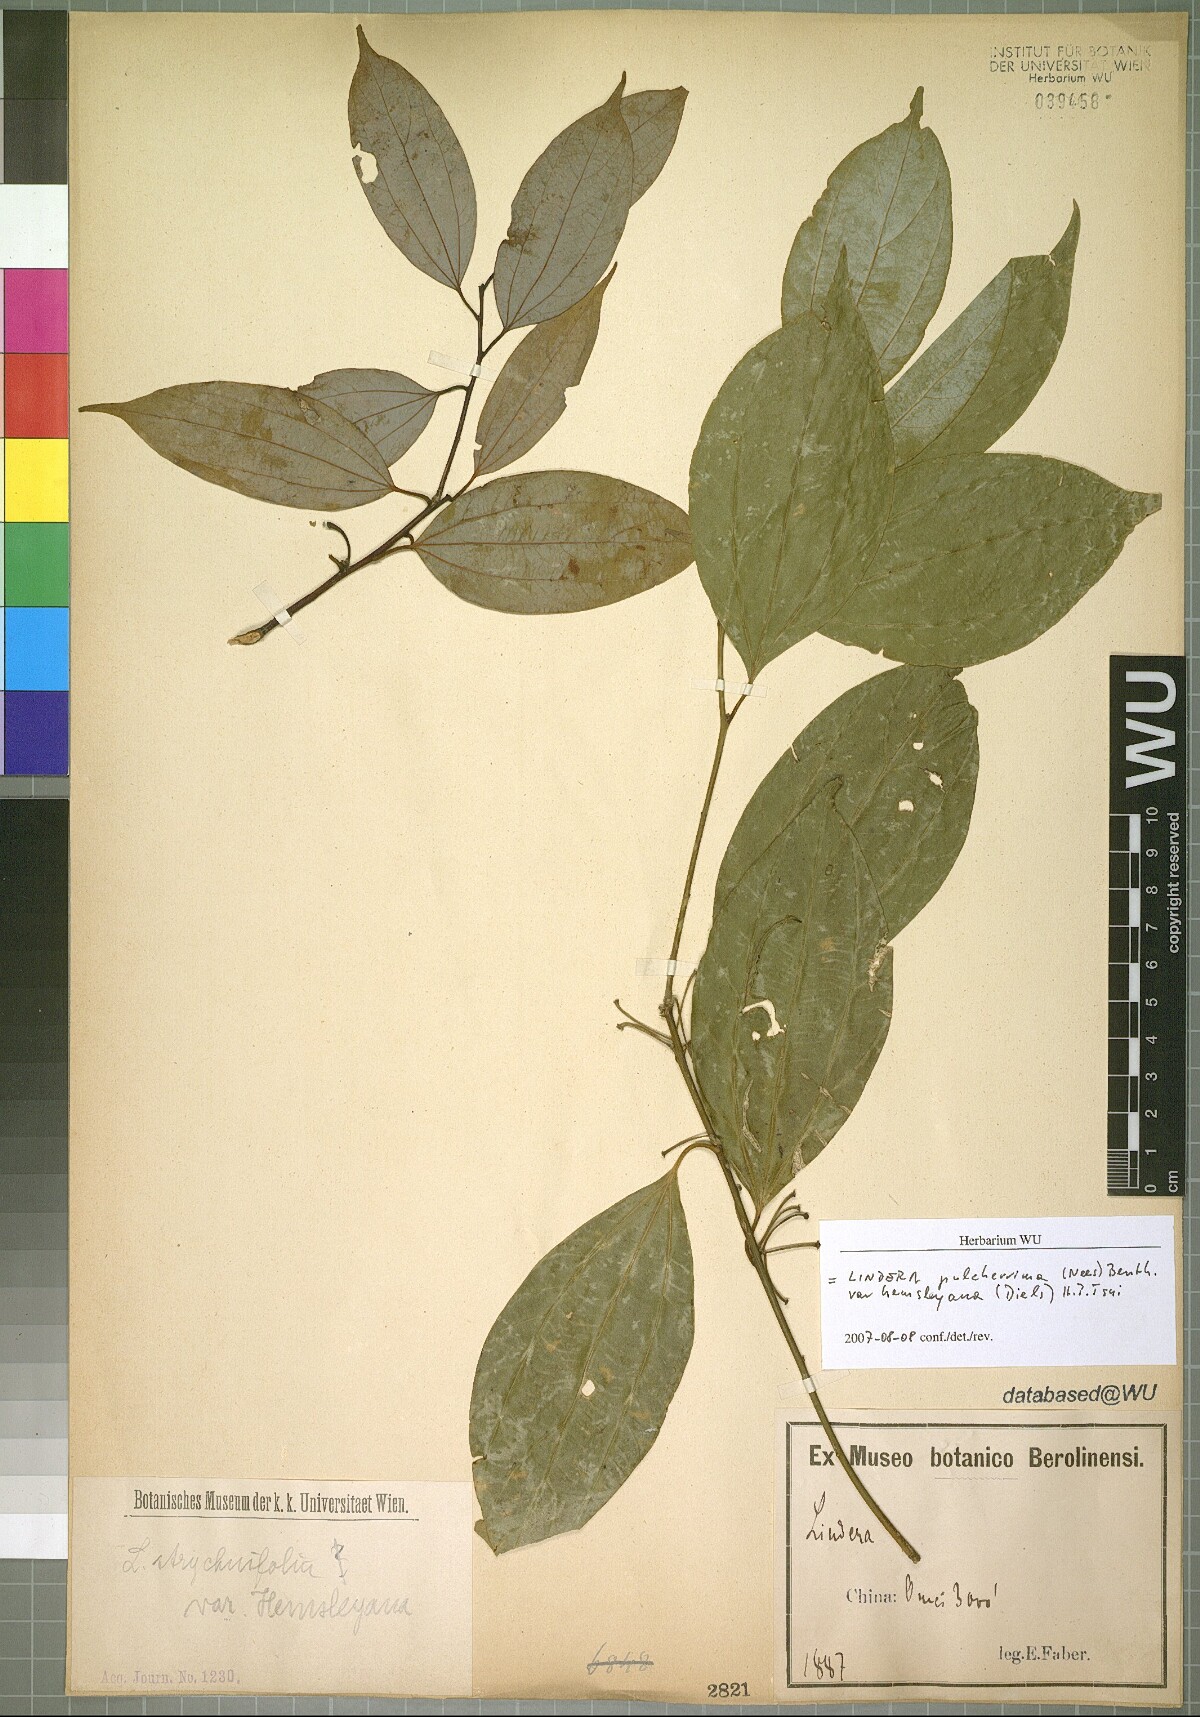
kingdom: Plantae
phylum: Tracheophyta
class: Magnoliopsida
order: Laurales
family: Lauraceae
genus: Lindera
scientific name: Lindera pulcherrima
